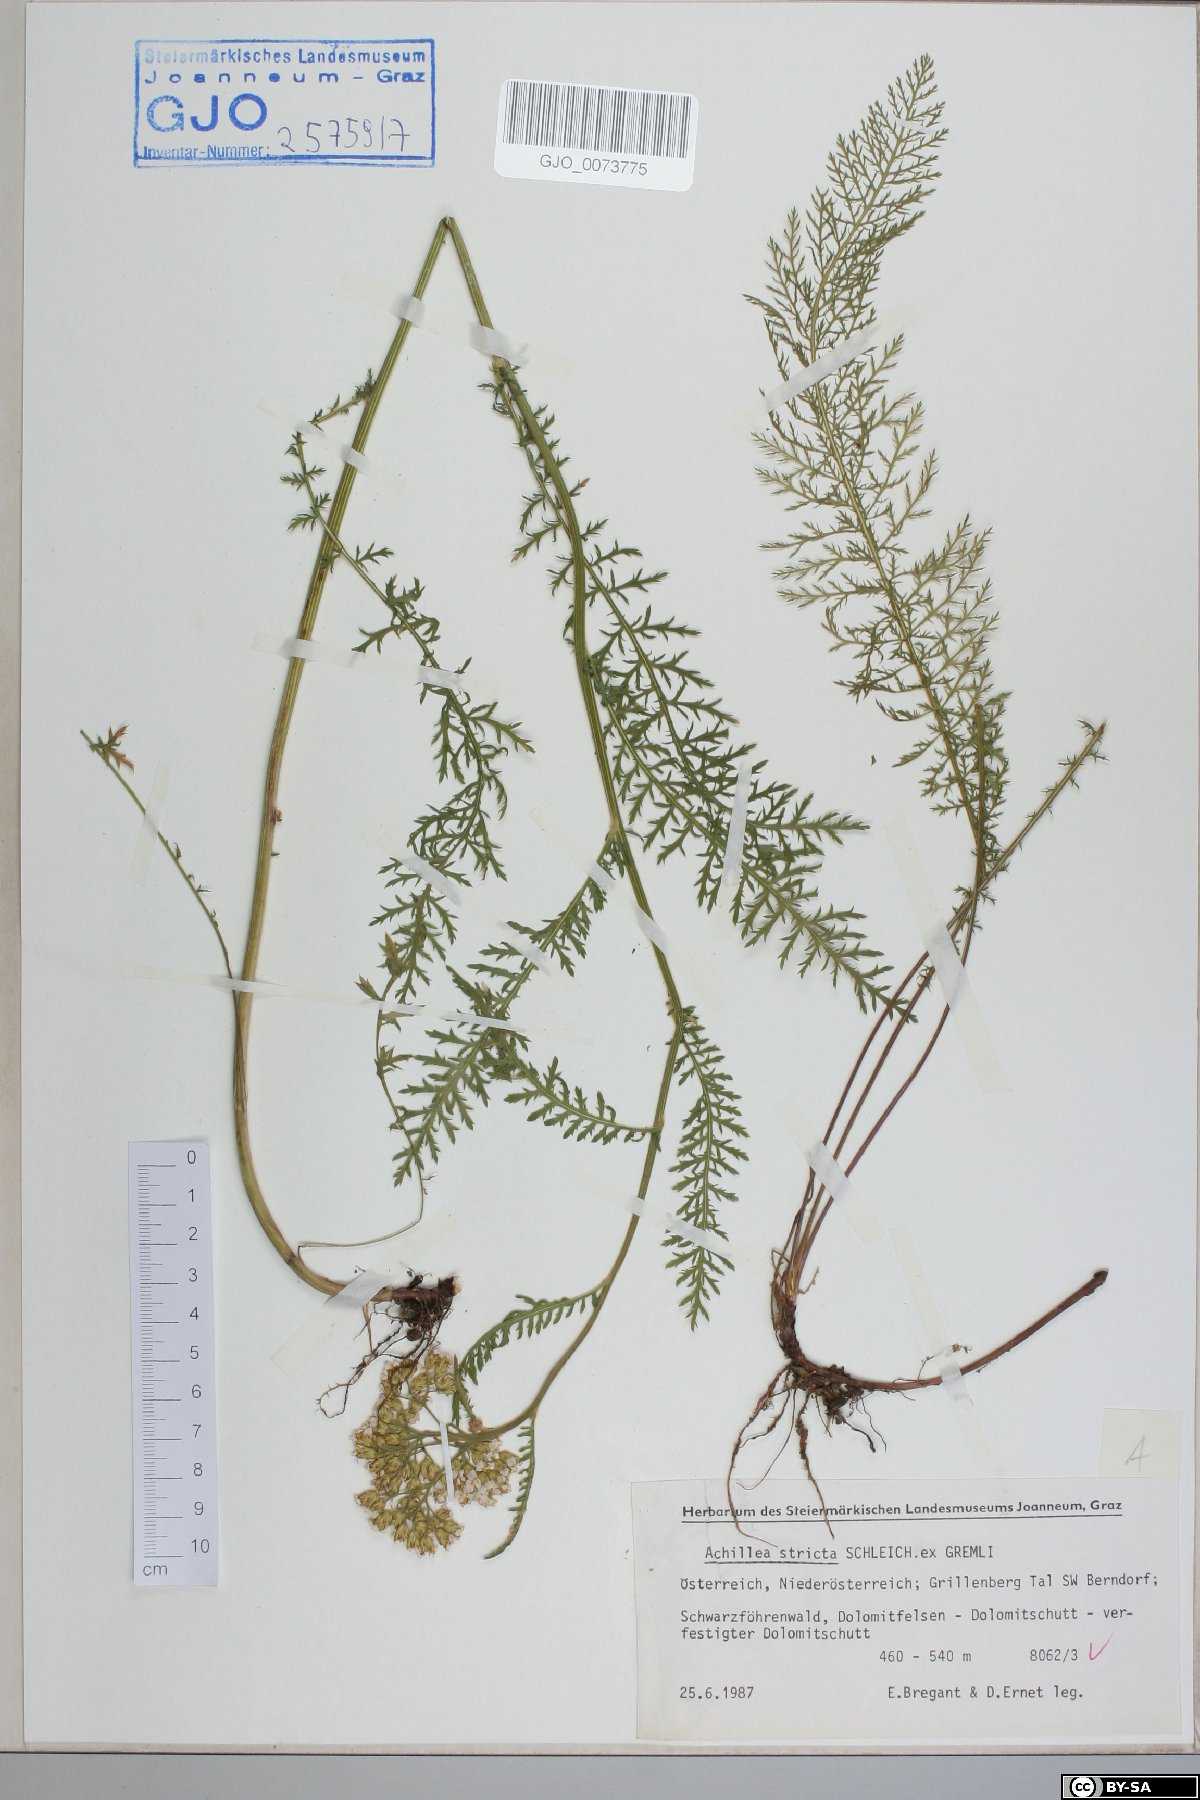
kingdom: Plantae
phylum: Tracheophyta
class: Magnoliopsida
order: Asterales
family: Asteraceae
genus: Achillea
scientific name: Achillea distans
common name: Tall yarrow
